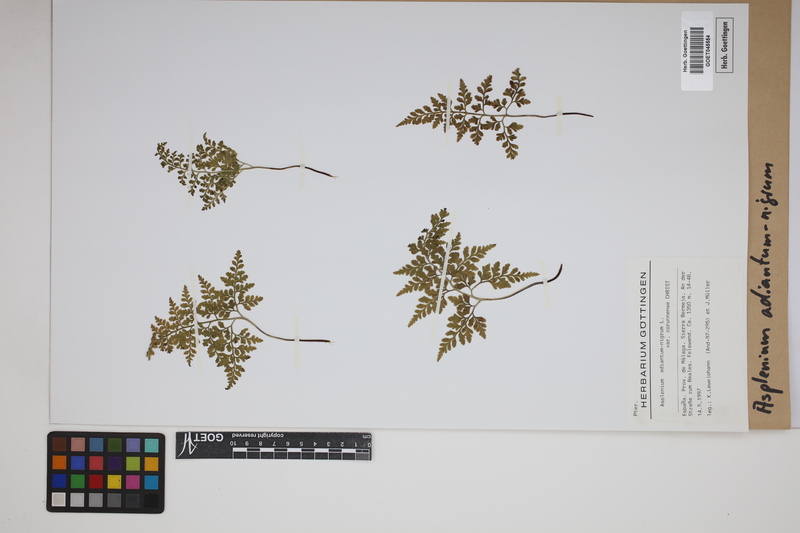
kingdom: Plantae
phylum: Tracheophyta
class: Polypodiopsida
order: Polypodiales
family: Aspleniaceae
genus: Asplenium
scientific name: Asplenium adiantum-nigrum
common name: Black spleenwort
